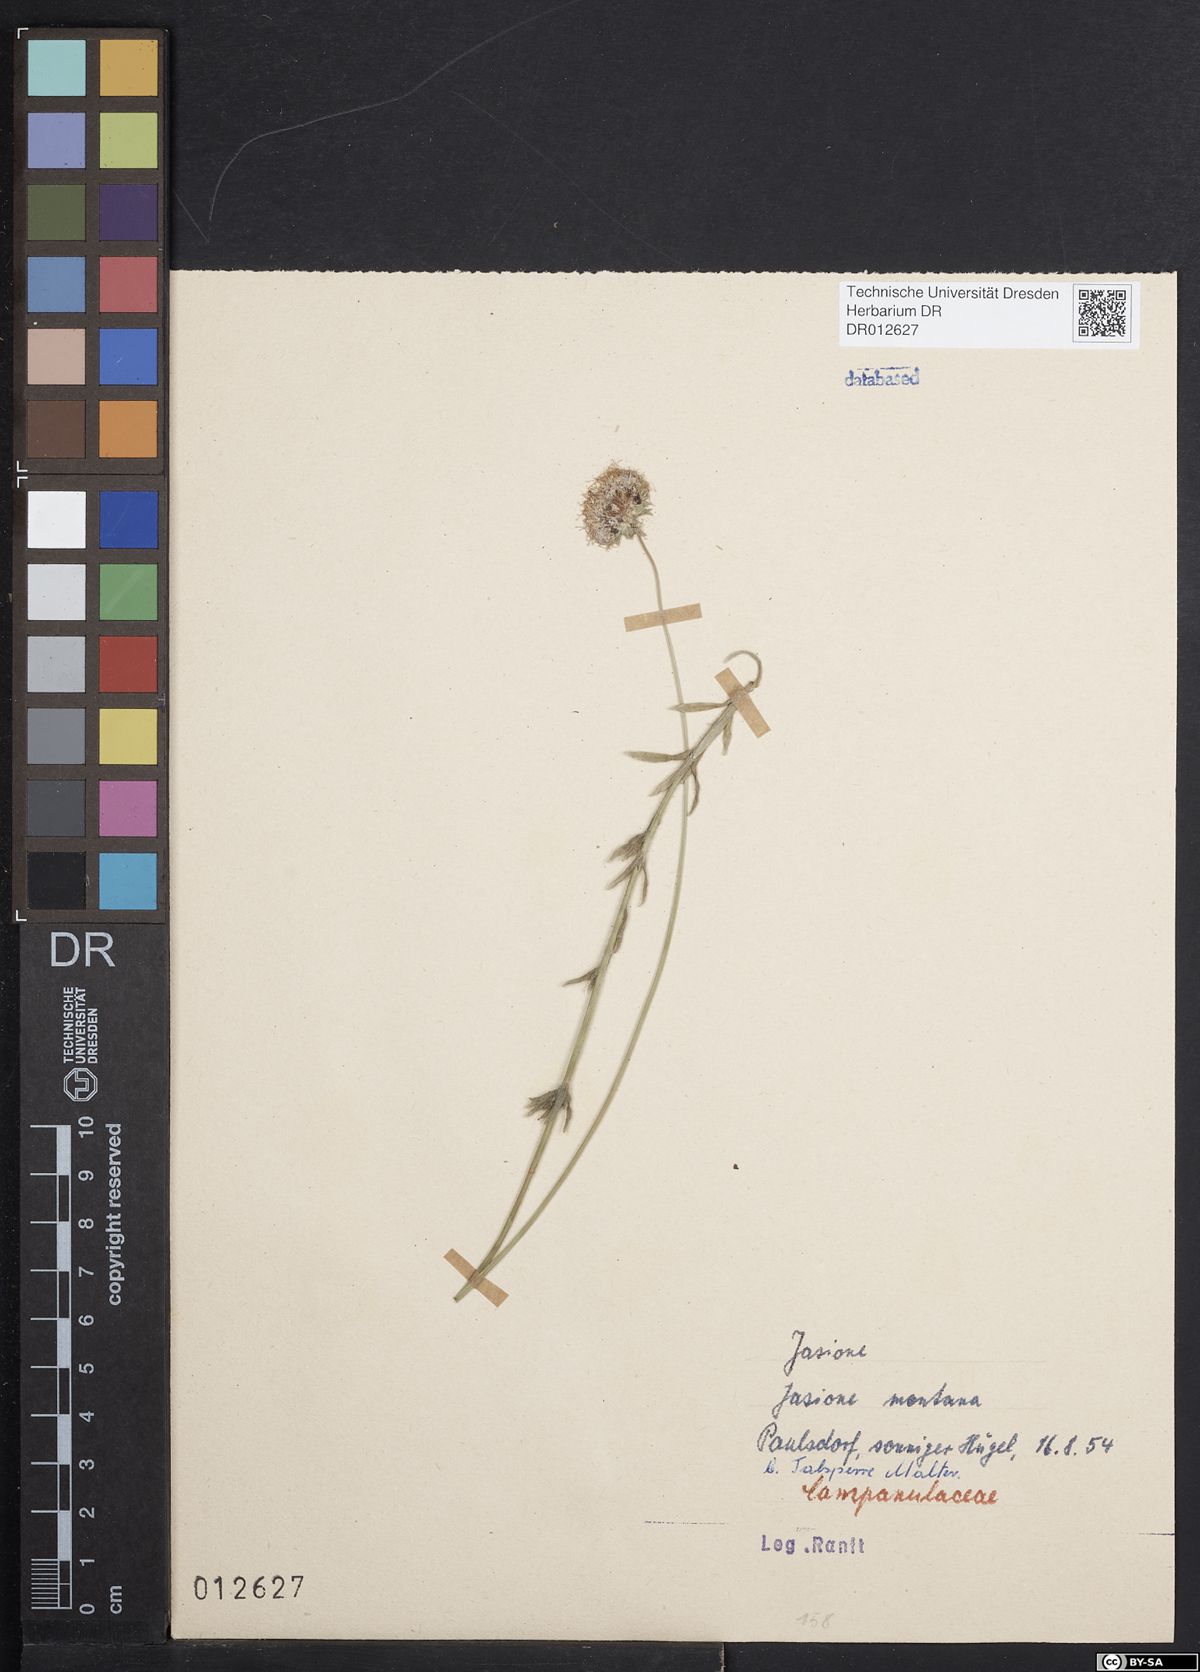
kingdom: Plantae
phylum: Tracheophyta
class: Magnoliopsida
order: Asterales
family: Campanulaceae
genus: Jasione
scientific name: Jasione montana
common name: Sheep's-bit
